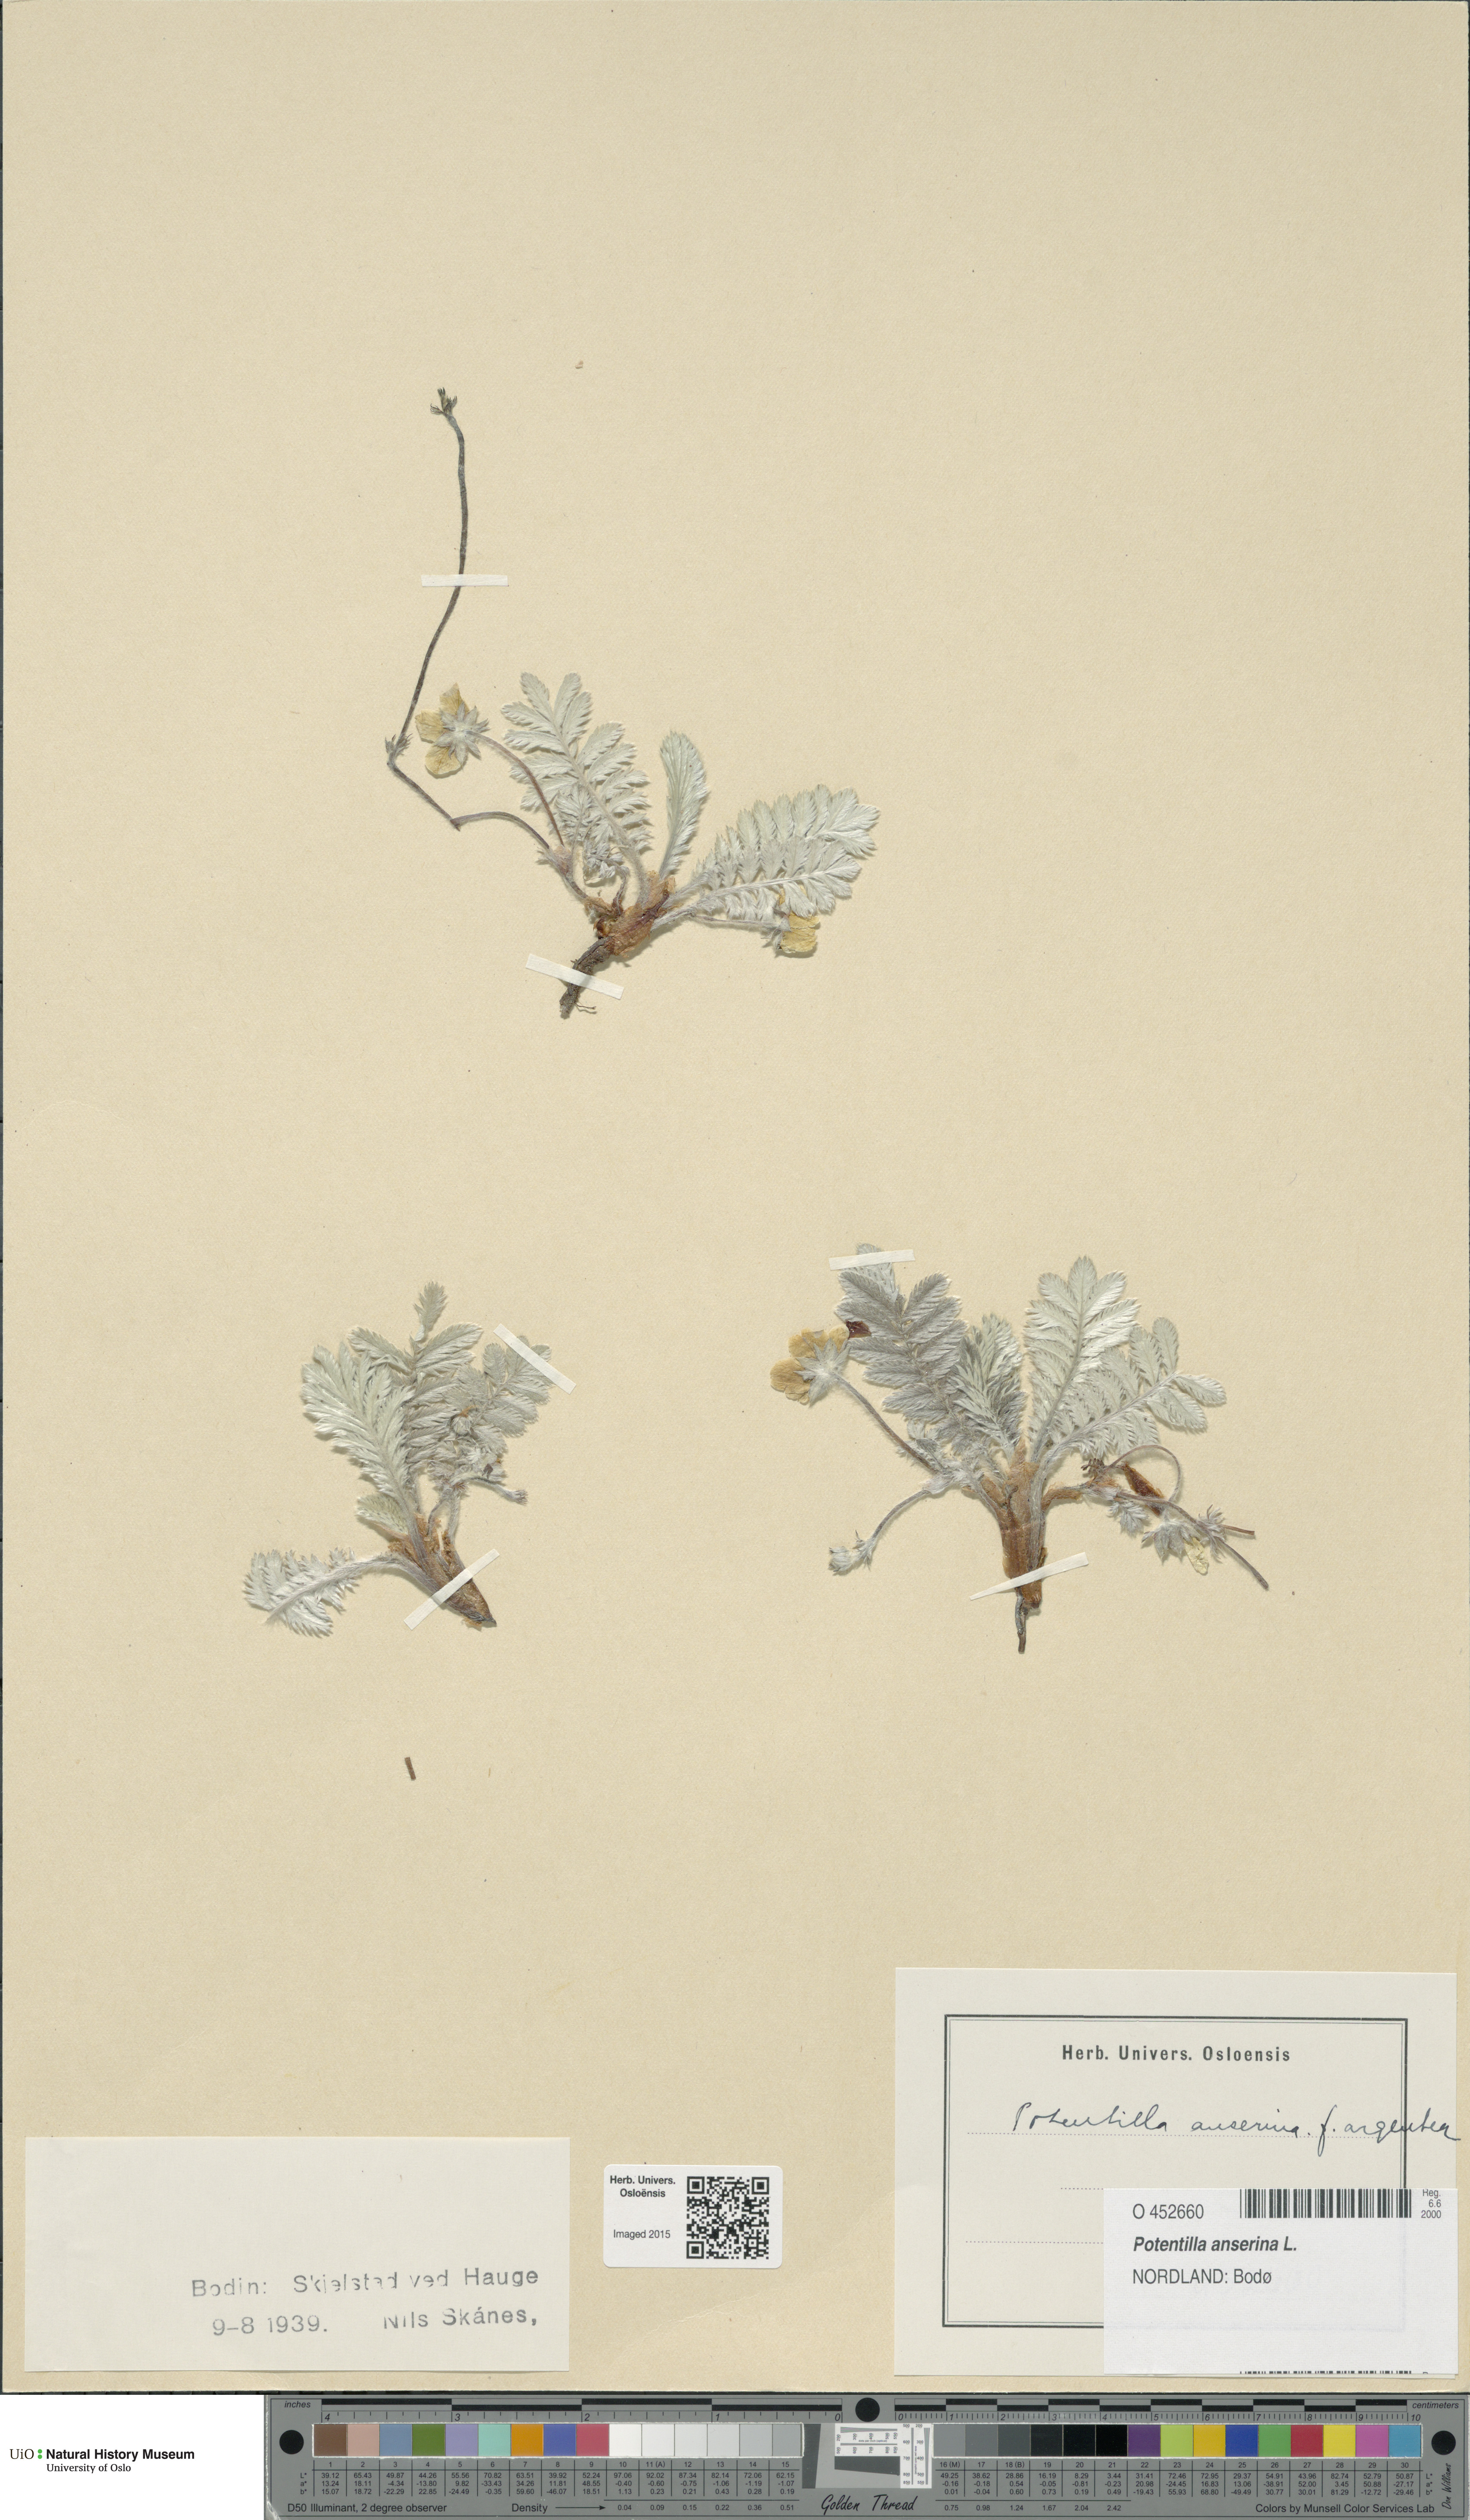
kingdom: Plantae
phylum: Tracheophyta
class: Magnoliopsida
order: Rosales
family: Rosaceae
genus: Argentina
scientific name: Argentina anserina
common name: Common silverweed
